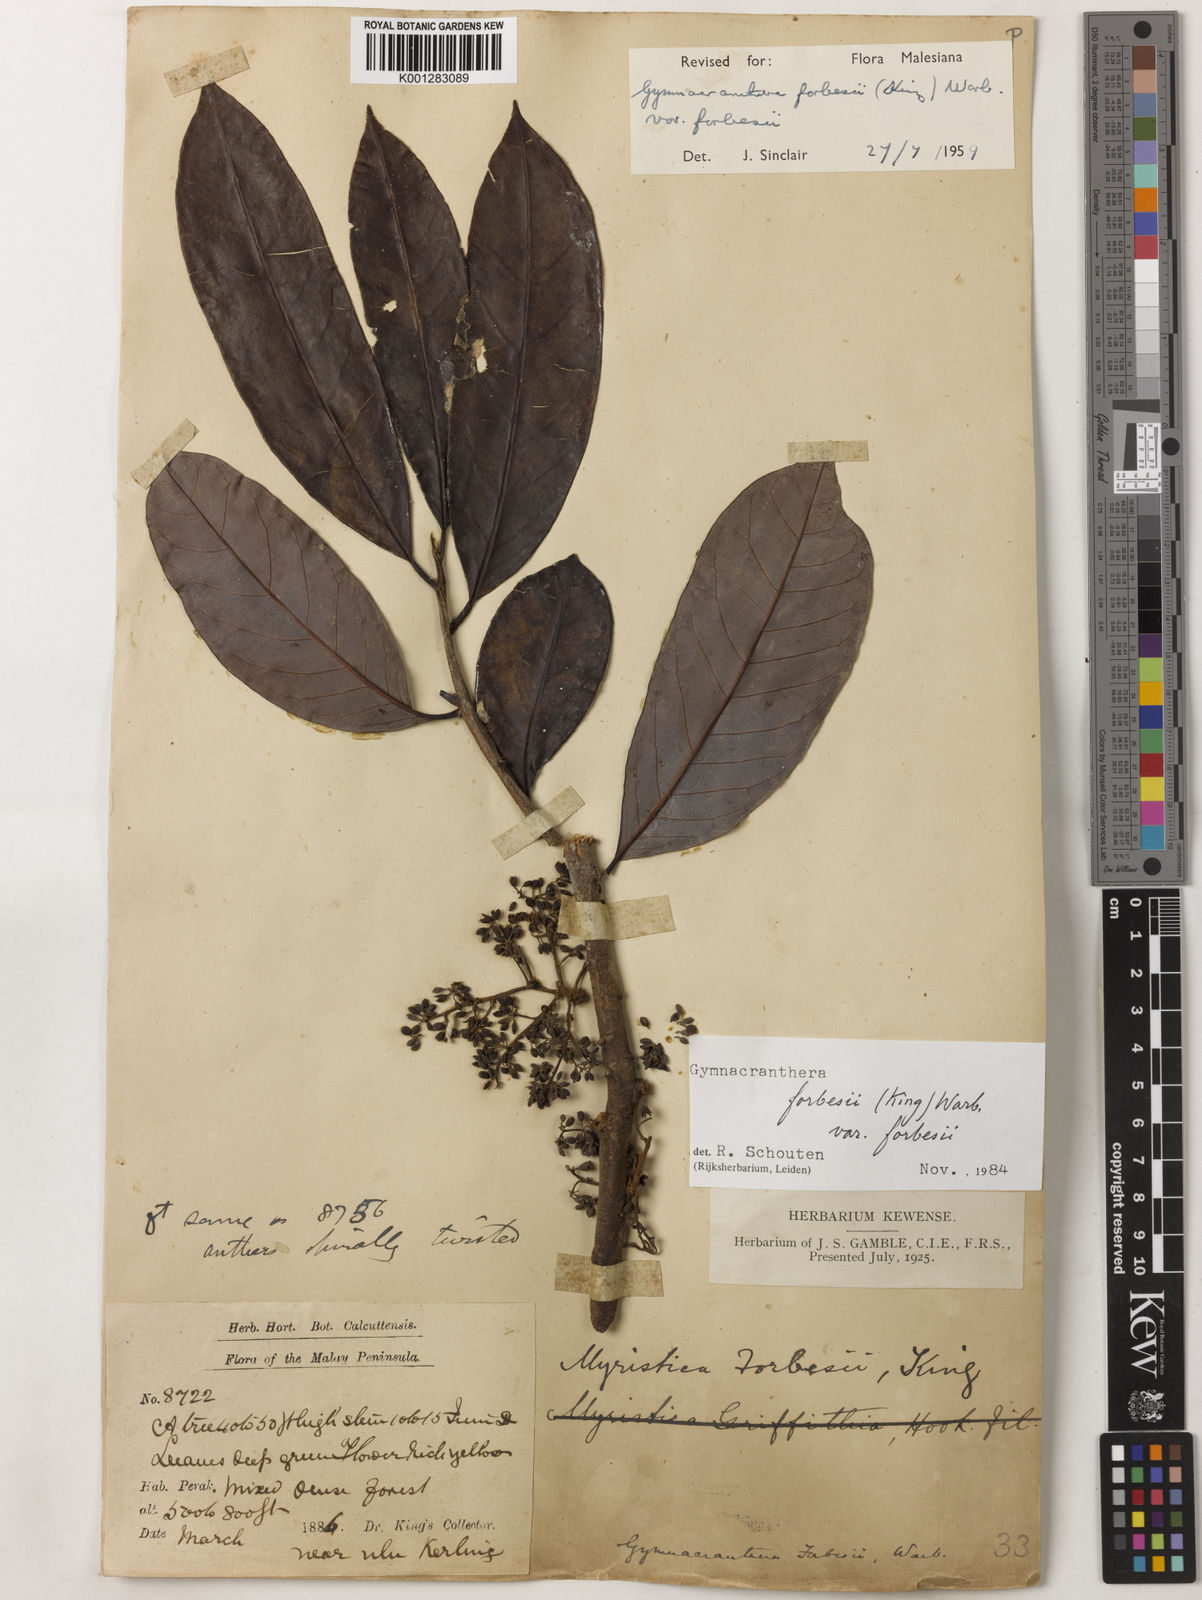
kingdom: Plantae
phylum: Tracheophyta
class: Magnoliopsida
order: Magnoliales
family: Myristicaceae
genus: Gymnacranthera
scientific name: Gymnacranthera forbesii
